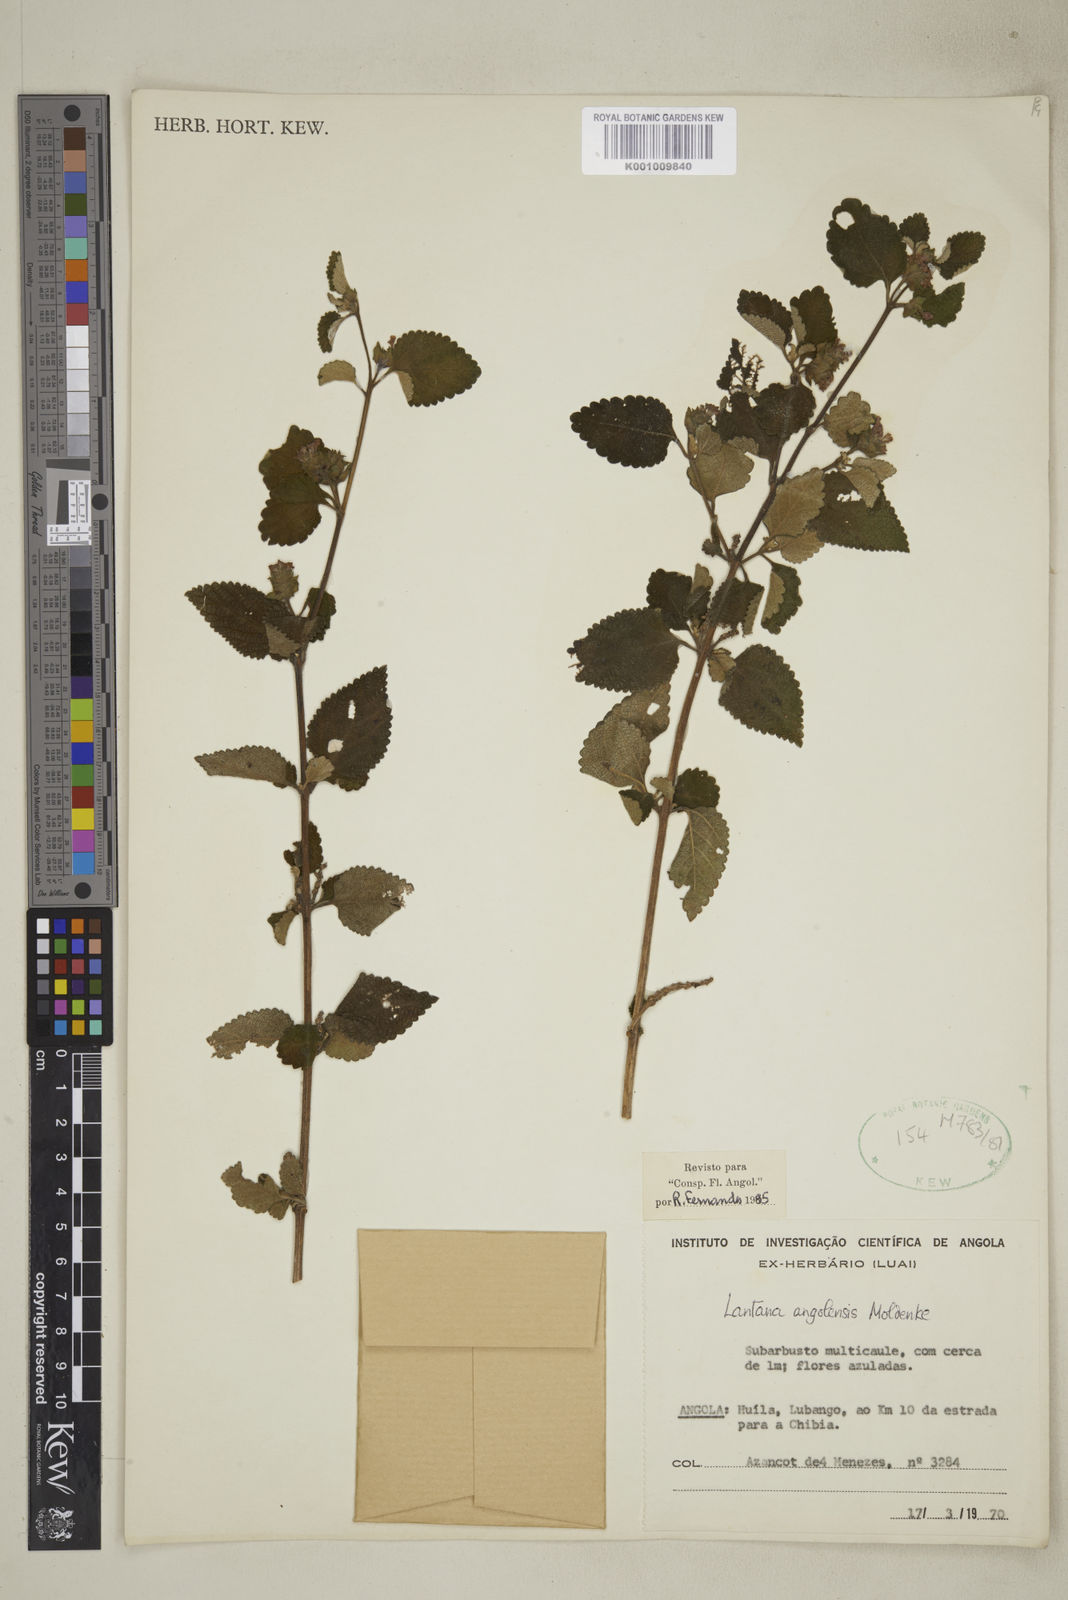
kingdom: Plantae
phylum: Tracheophyta
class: Magnoliopsida
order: Lamiales
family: Verbenaceae
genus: Lantana
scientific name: Lantana angolensis
